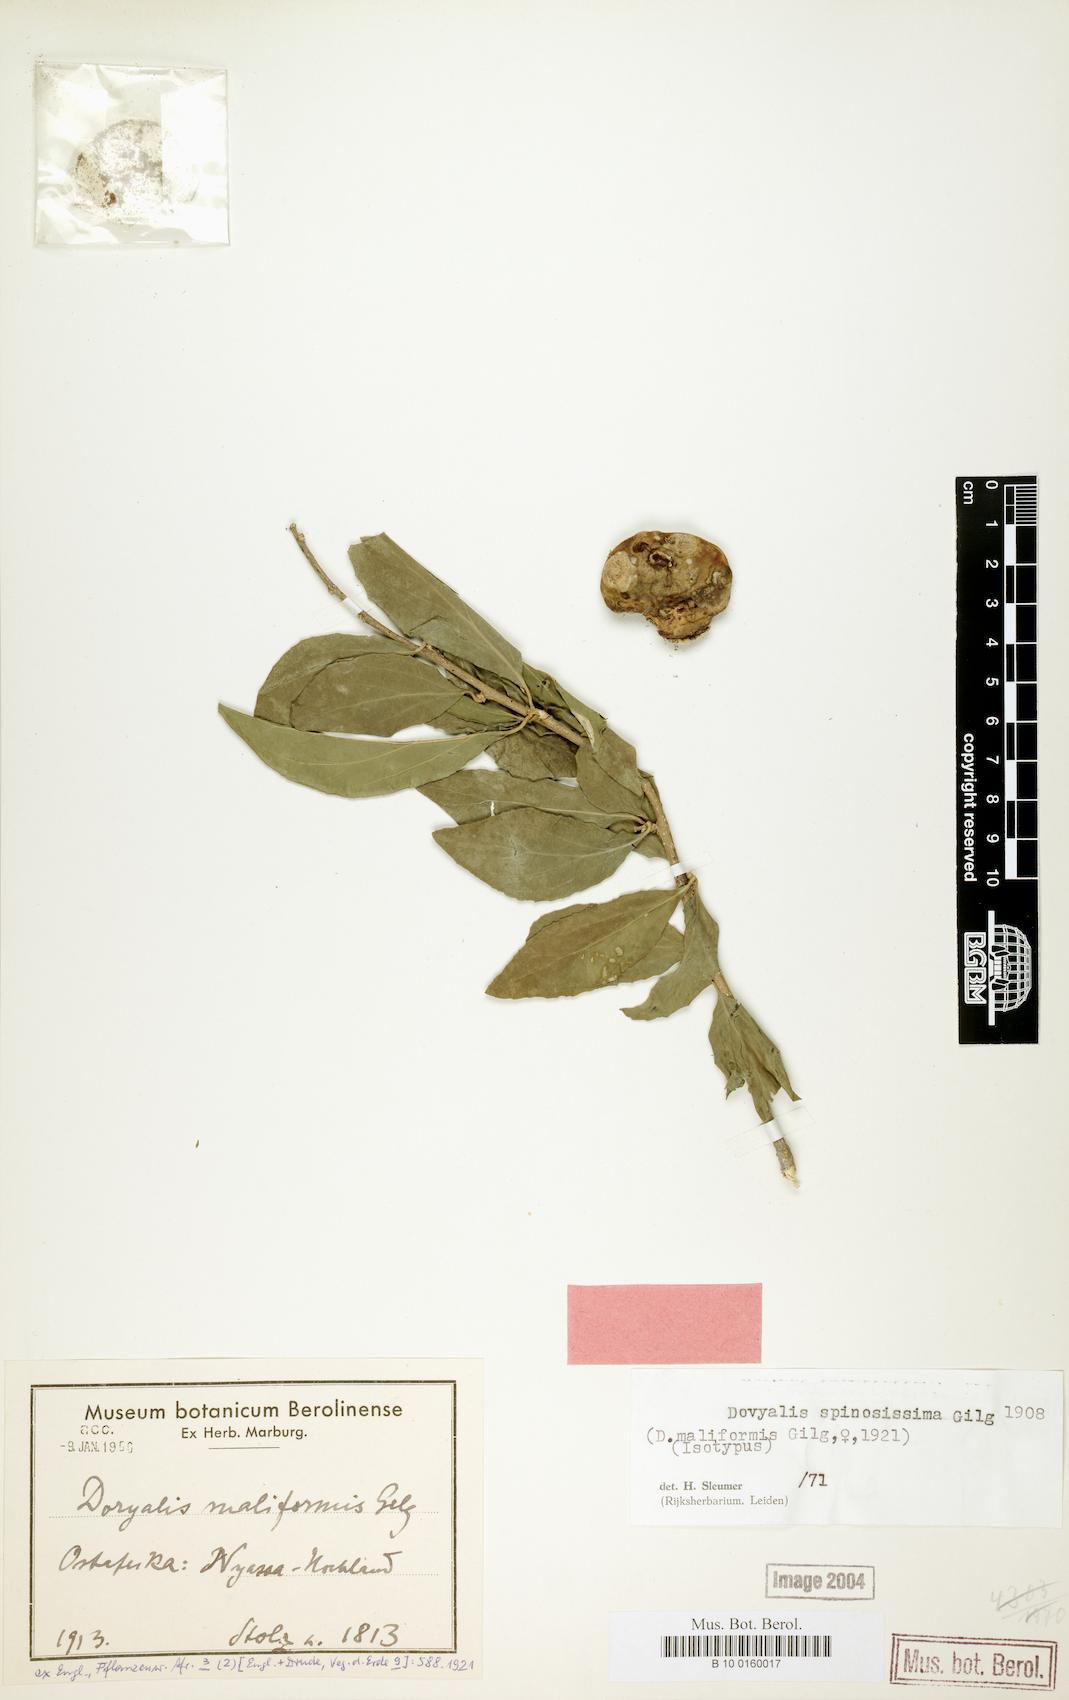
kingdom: Plantae
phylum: Tracheophyta
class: Magnoliopsida
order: Malpighiales
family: Salicaceae
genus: Dovyalis
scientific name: Dovyalis spinosissima
